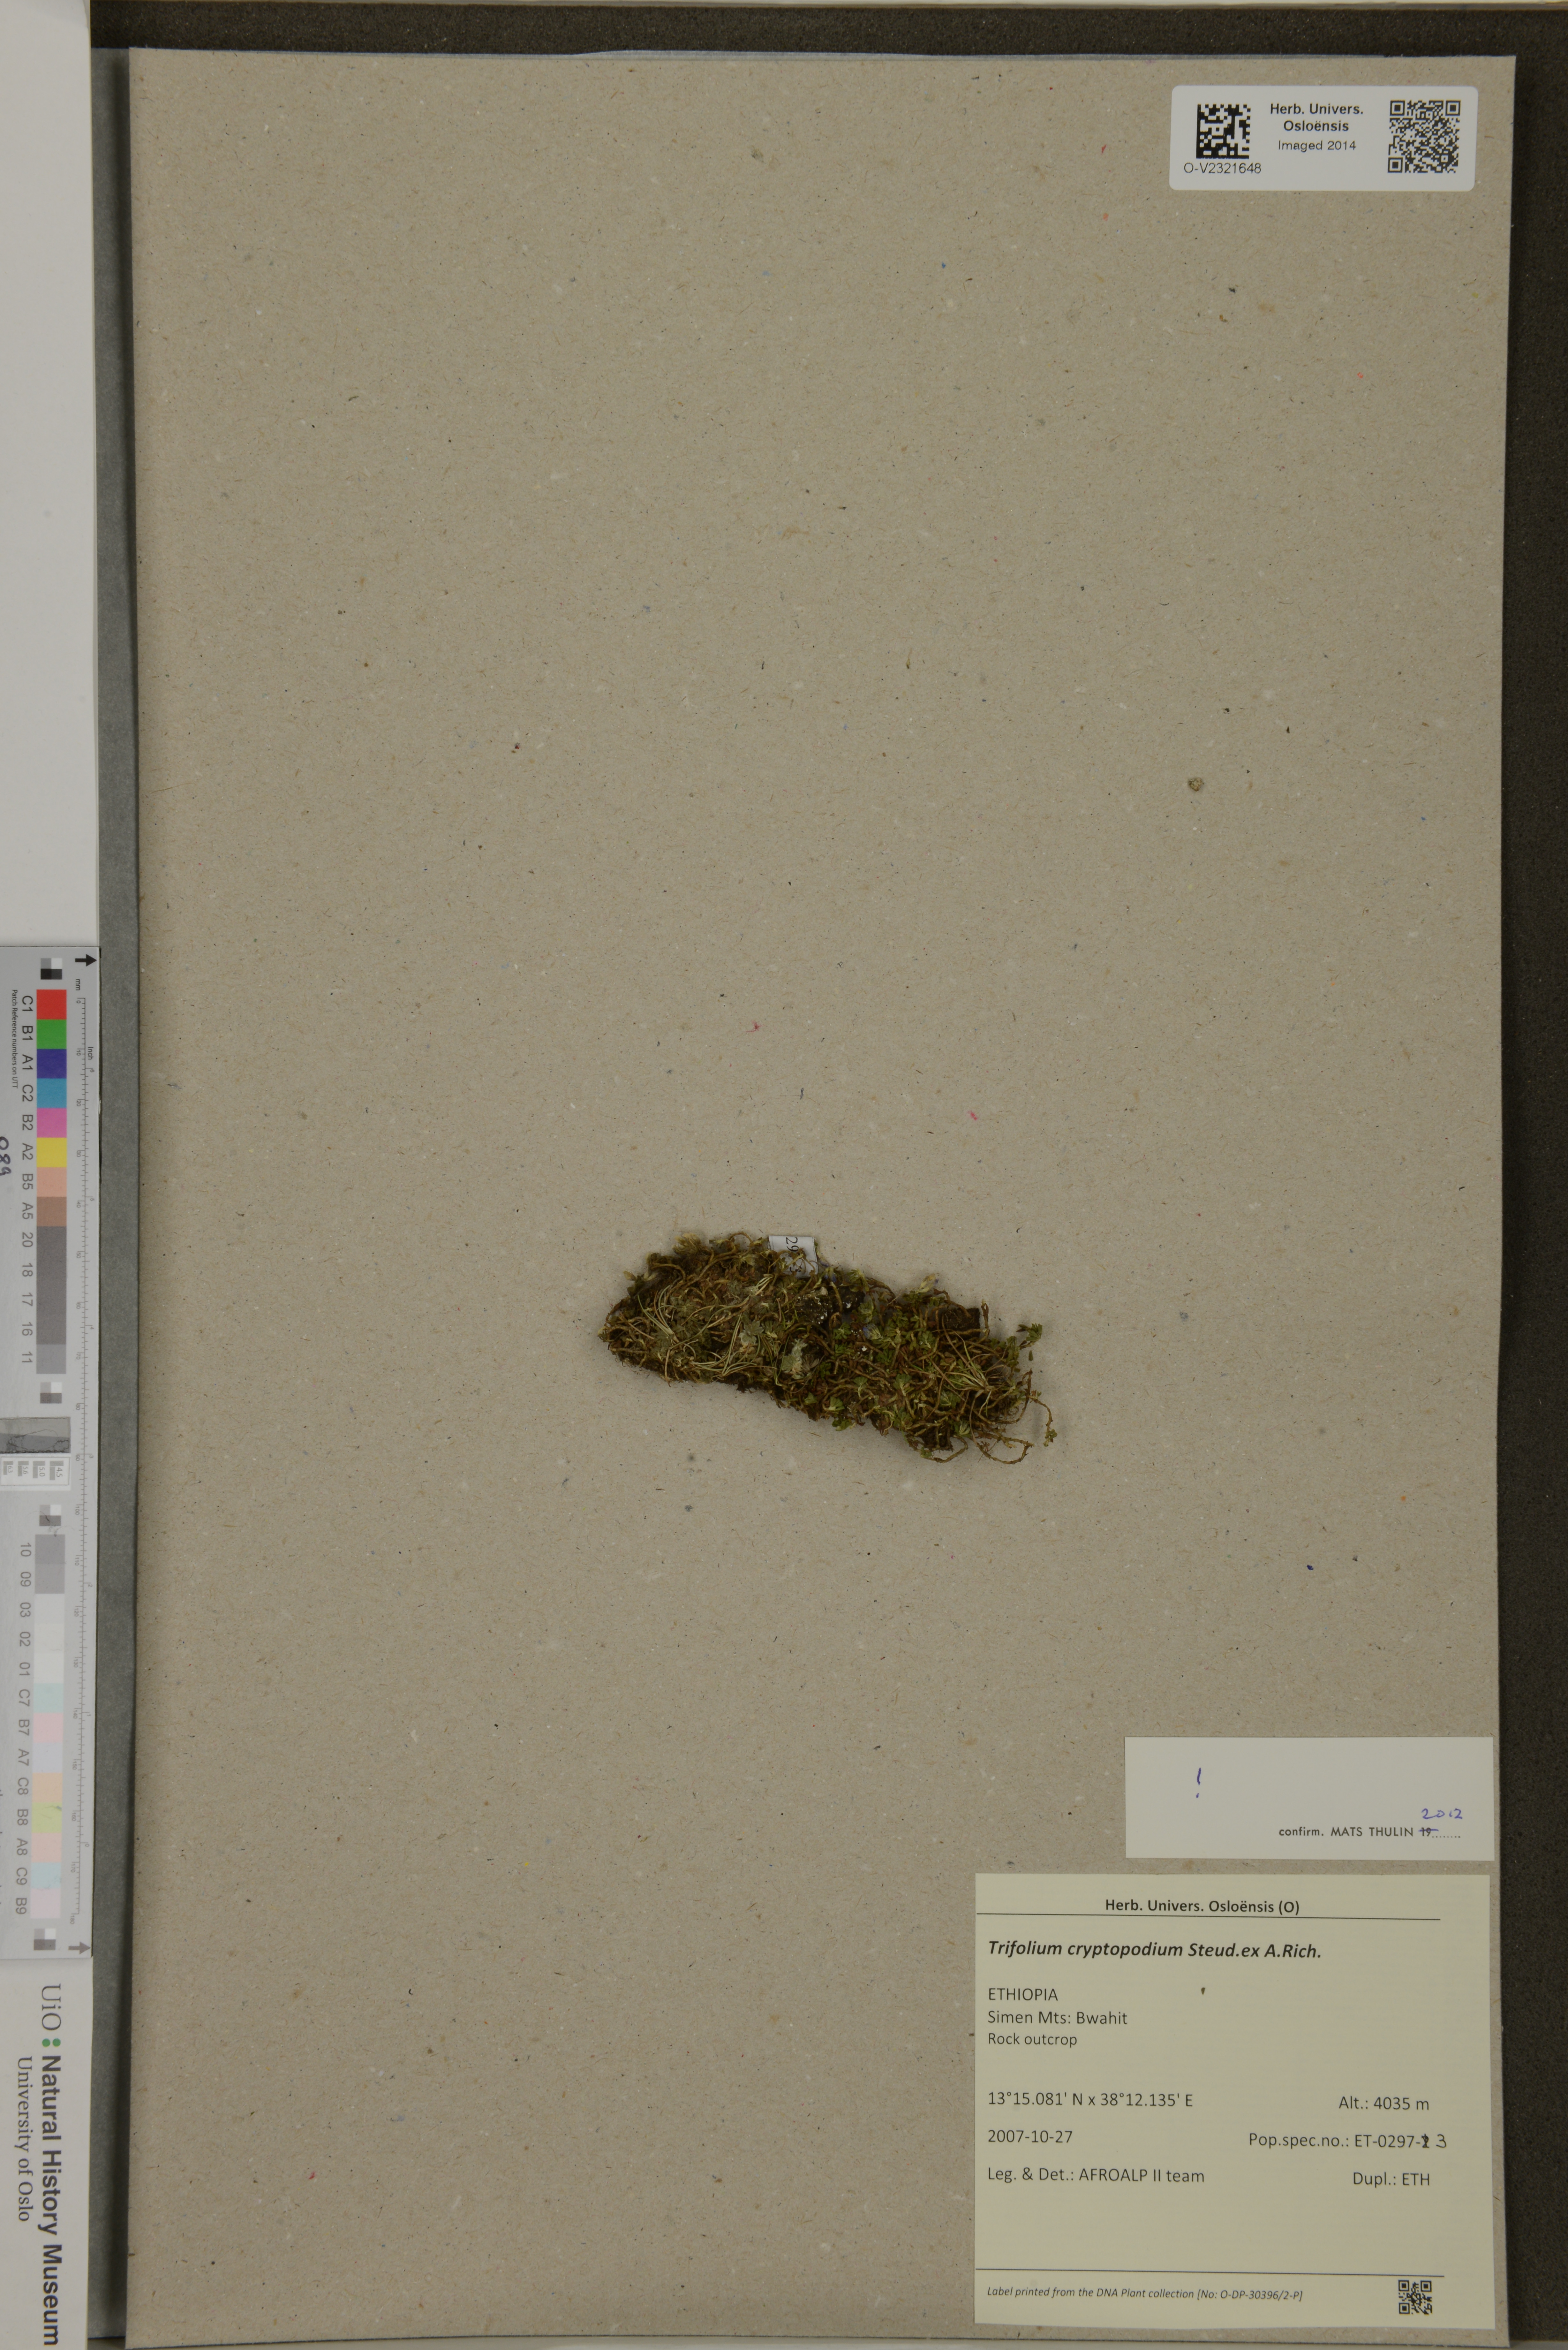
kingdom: Plantae
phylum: Tracheophyta
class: Magnoliopsida
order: Fabales
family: Fabaceae
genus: Trifolium
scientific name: Trifolium cryptopodium
